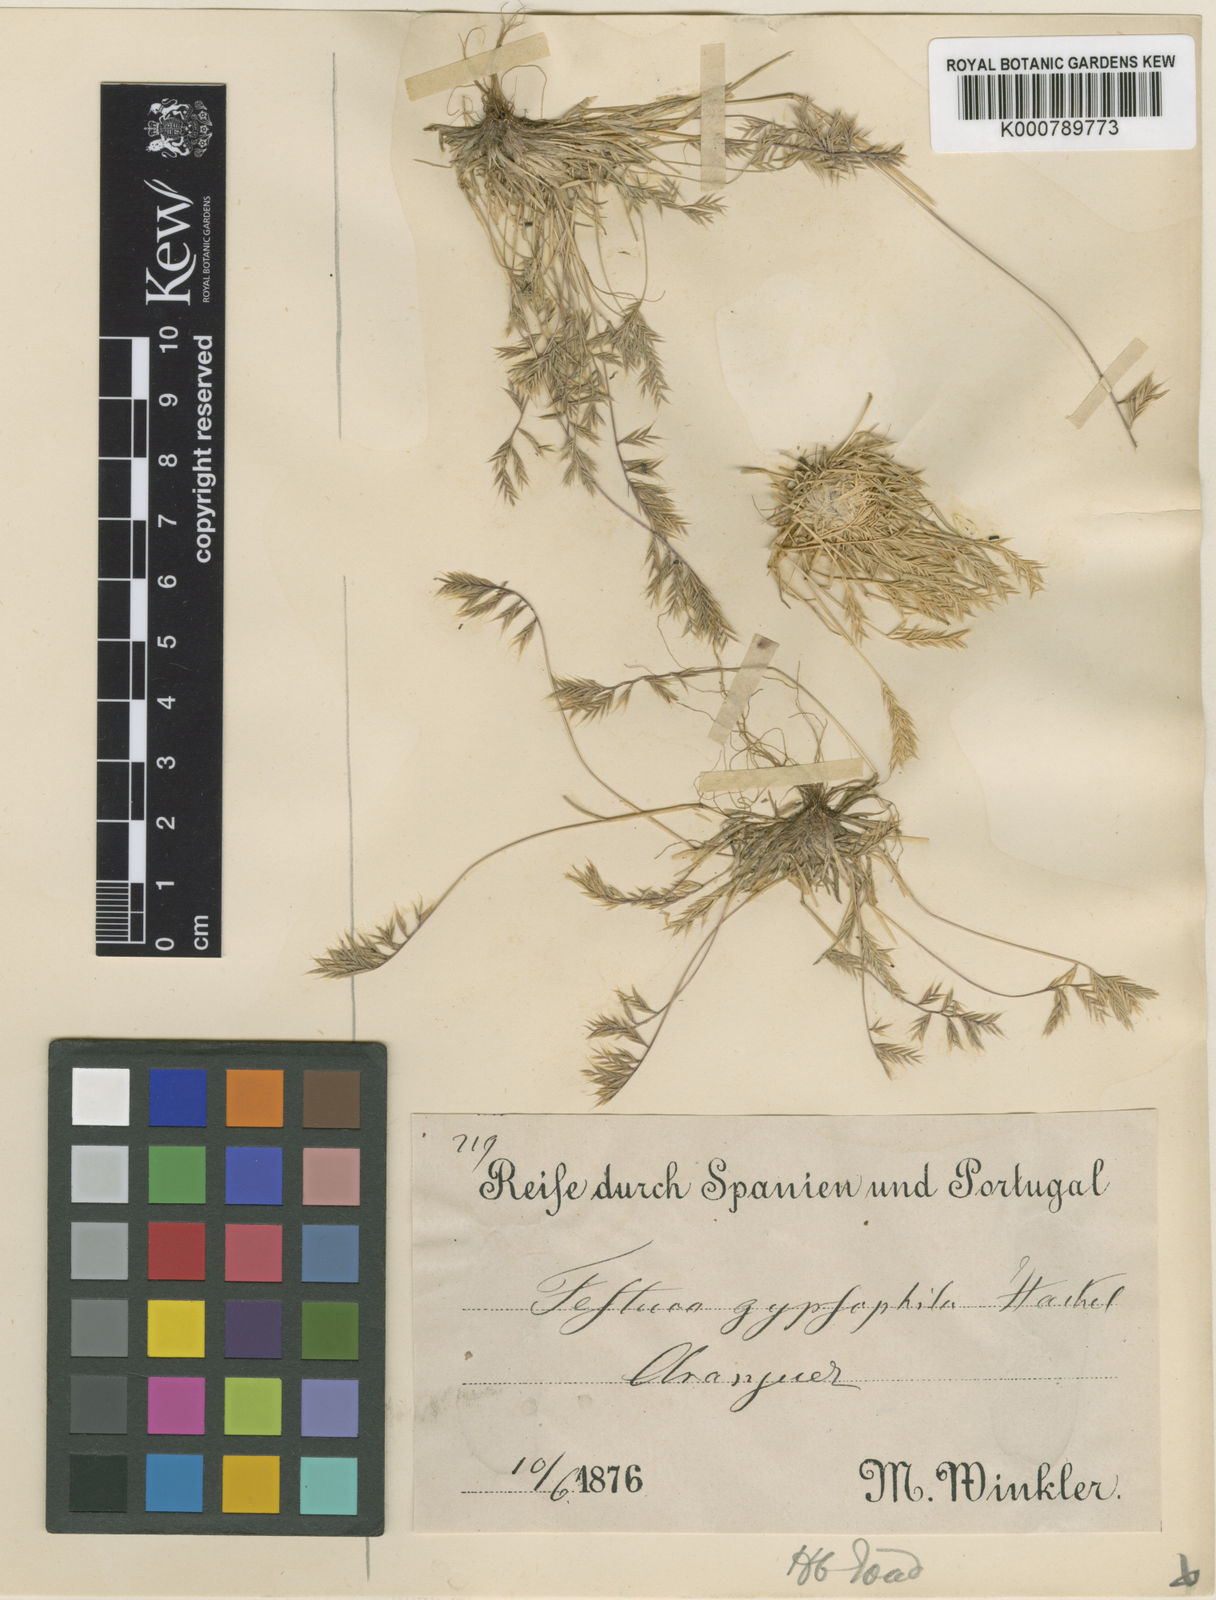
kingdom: Plantae
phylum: Tracheophyta
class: Liliopsida
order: Poales
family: Poaceae
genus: Festuca
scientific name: Festuca gypsophila
